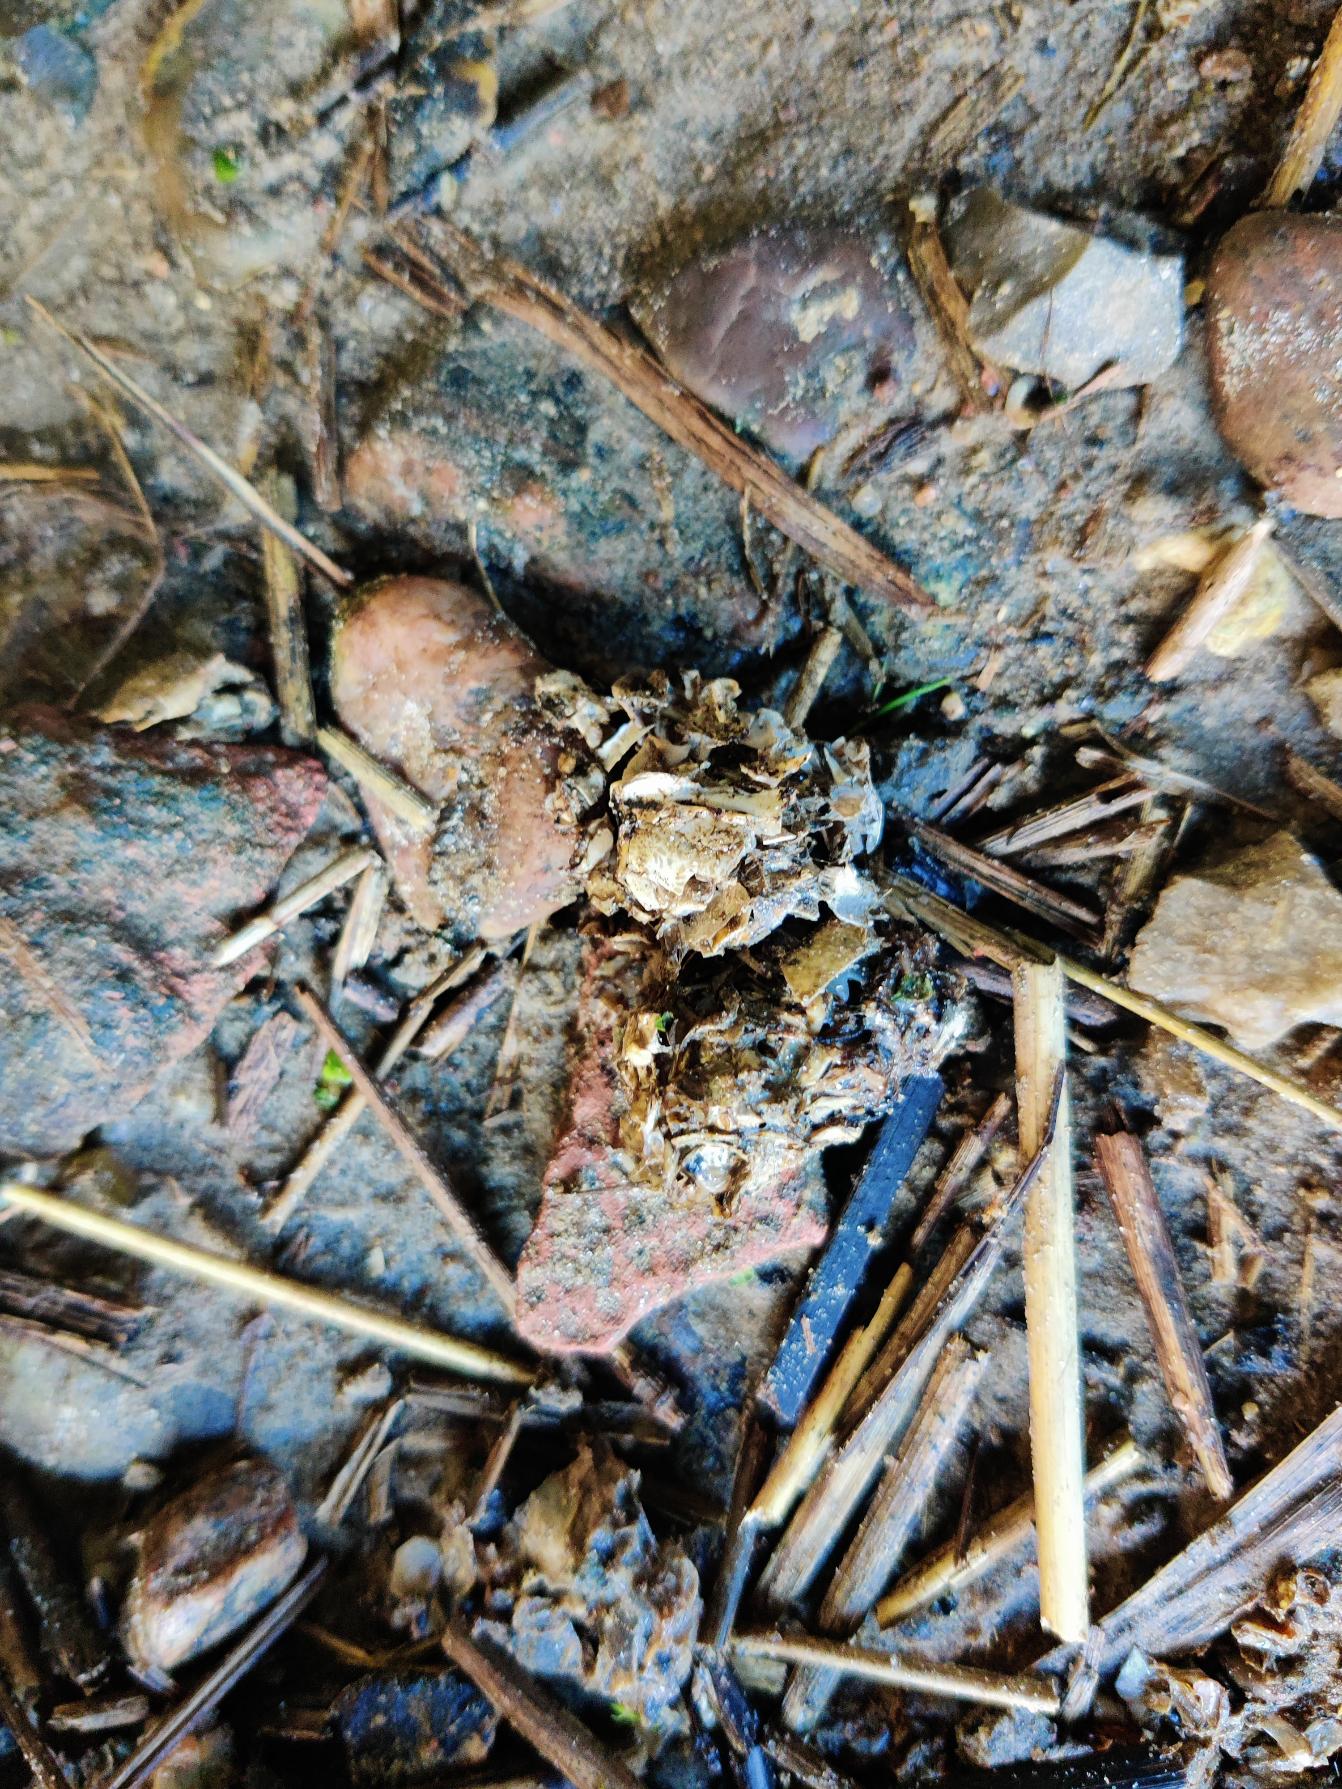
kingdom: Animalia
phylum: Chordata
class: Mammalia
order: Carnivora
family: Mustelidae
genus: Lutra
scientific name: Lutra lutra
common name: Odder
